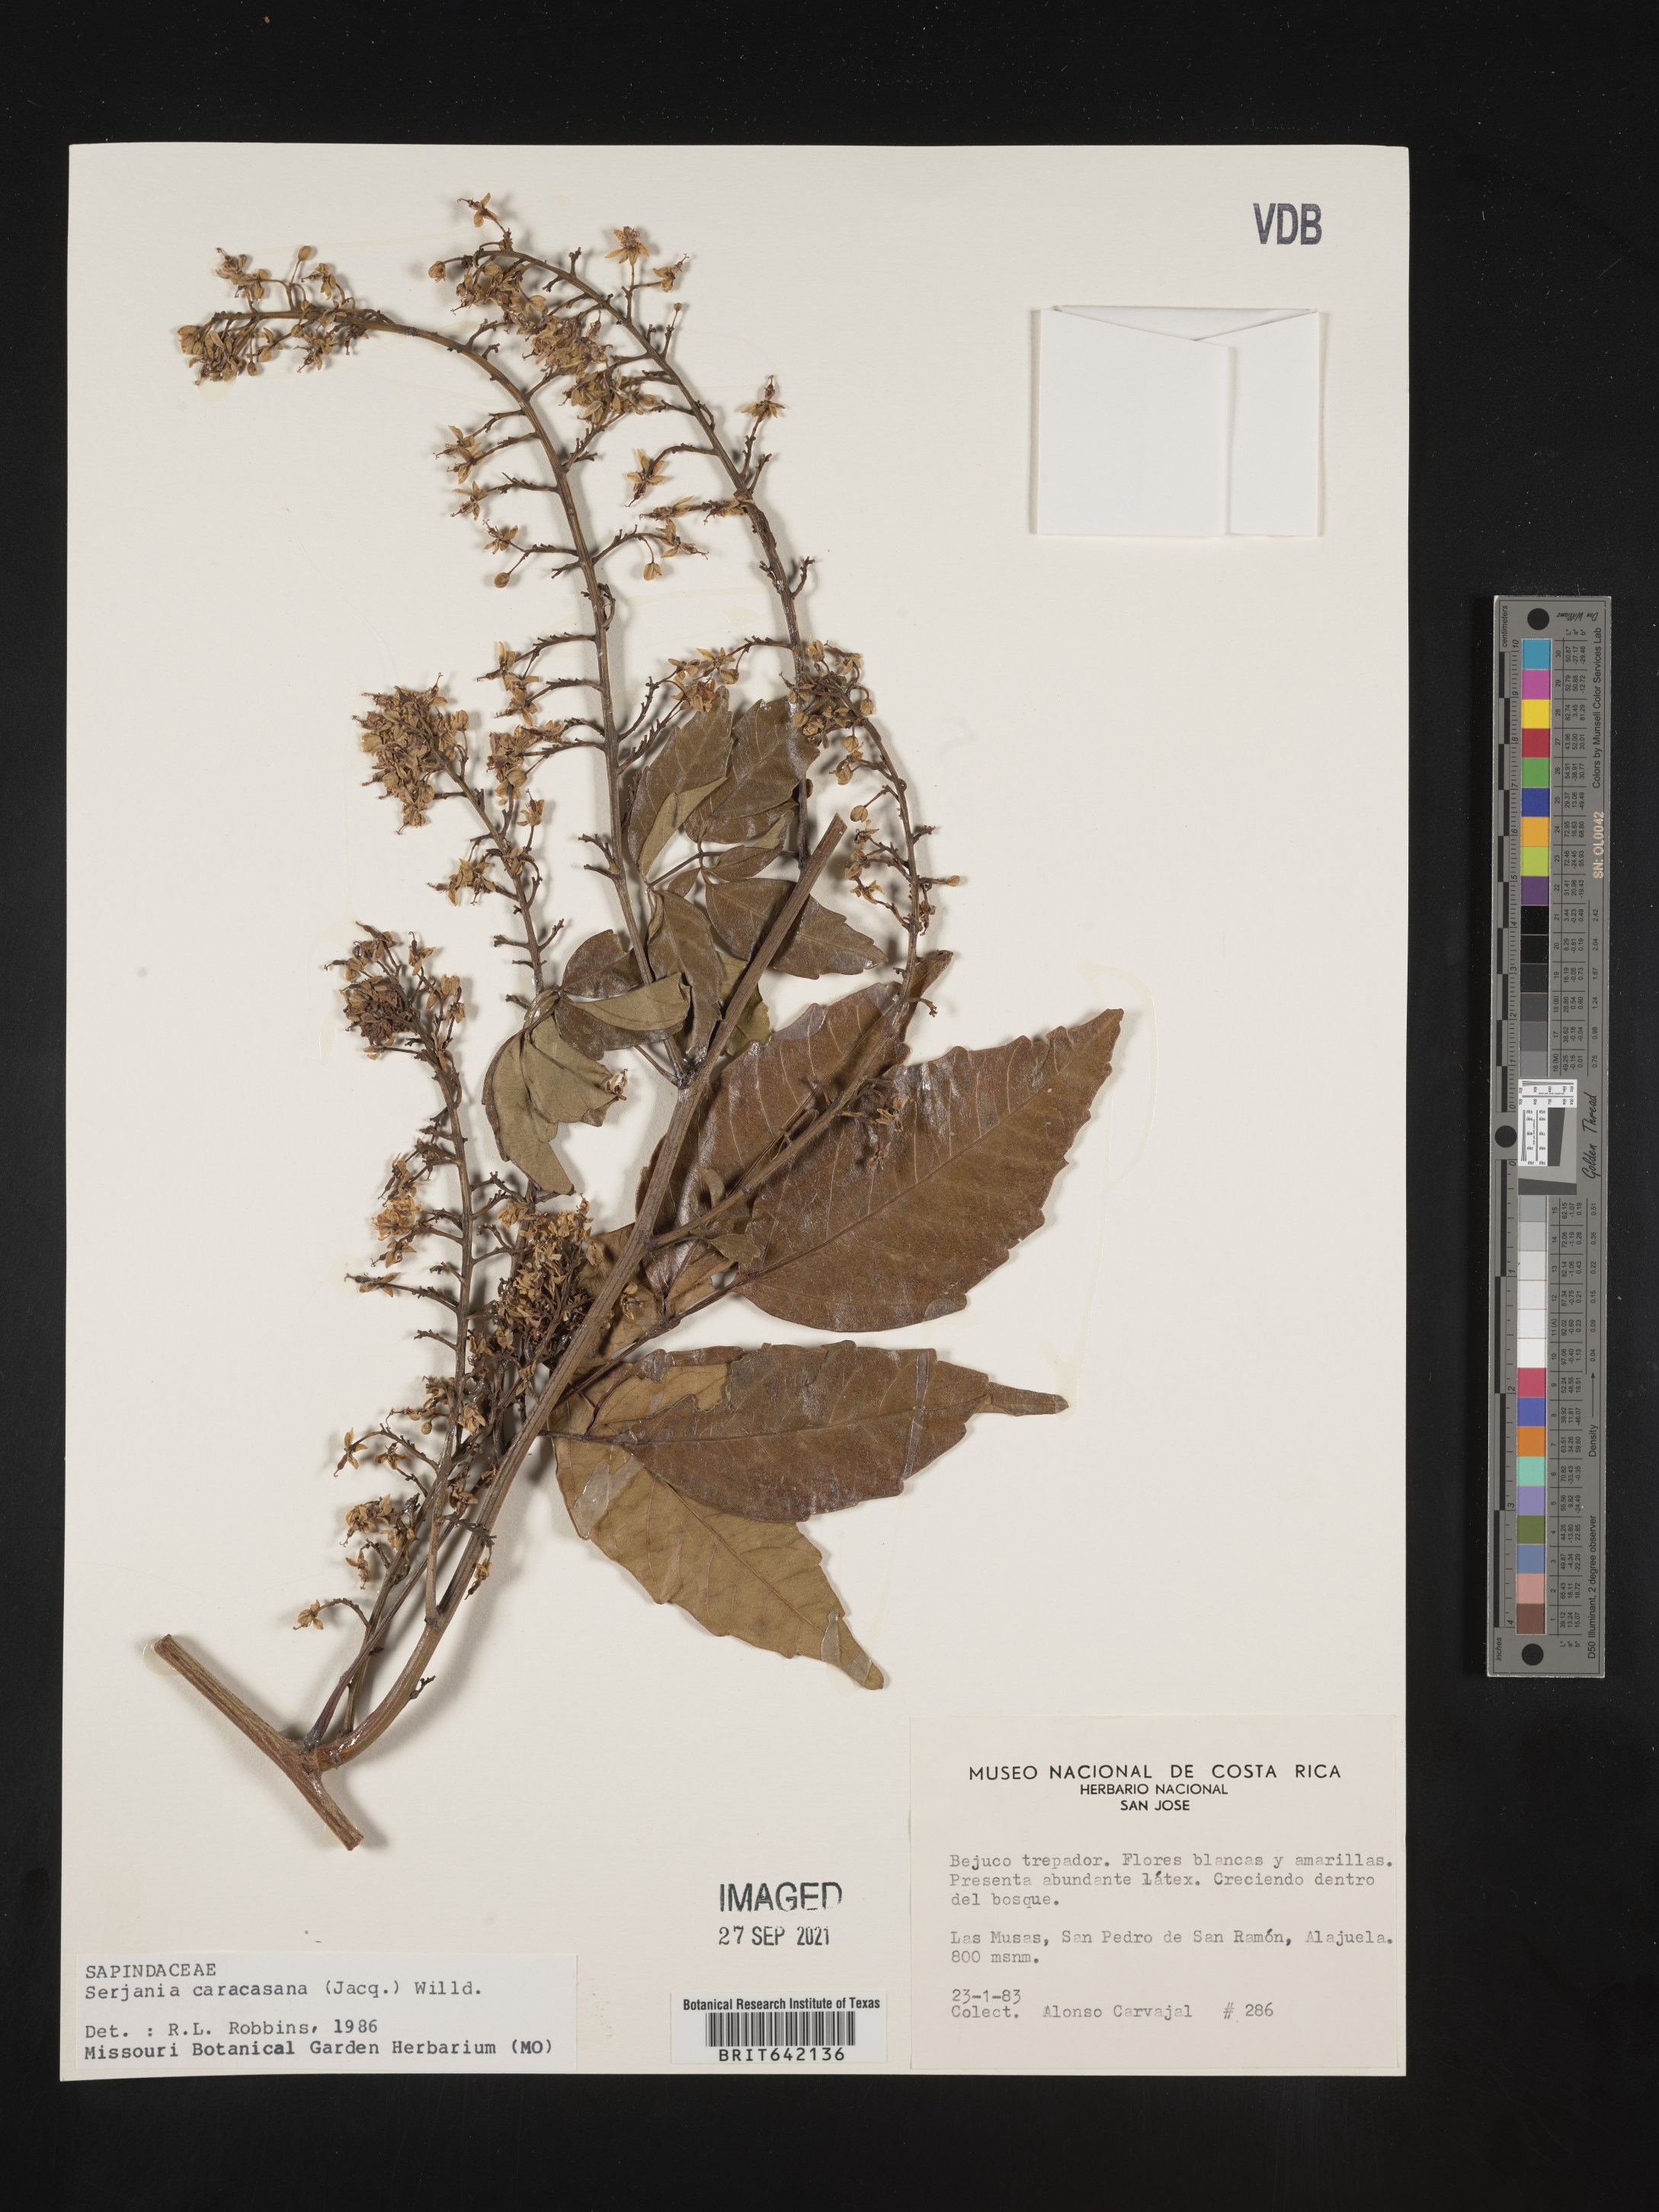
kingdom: Plantae
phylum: Tracheophyta
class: Magnoliopsida
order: Sapindales
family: Sapindaceae
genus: Serjania
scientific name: Serjania
